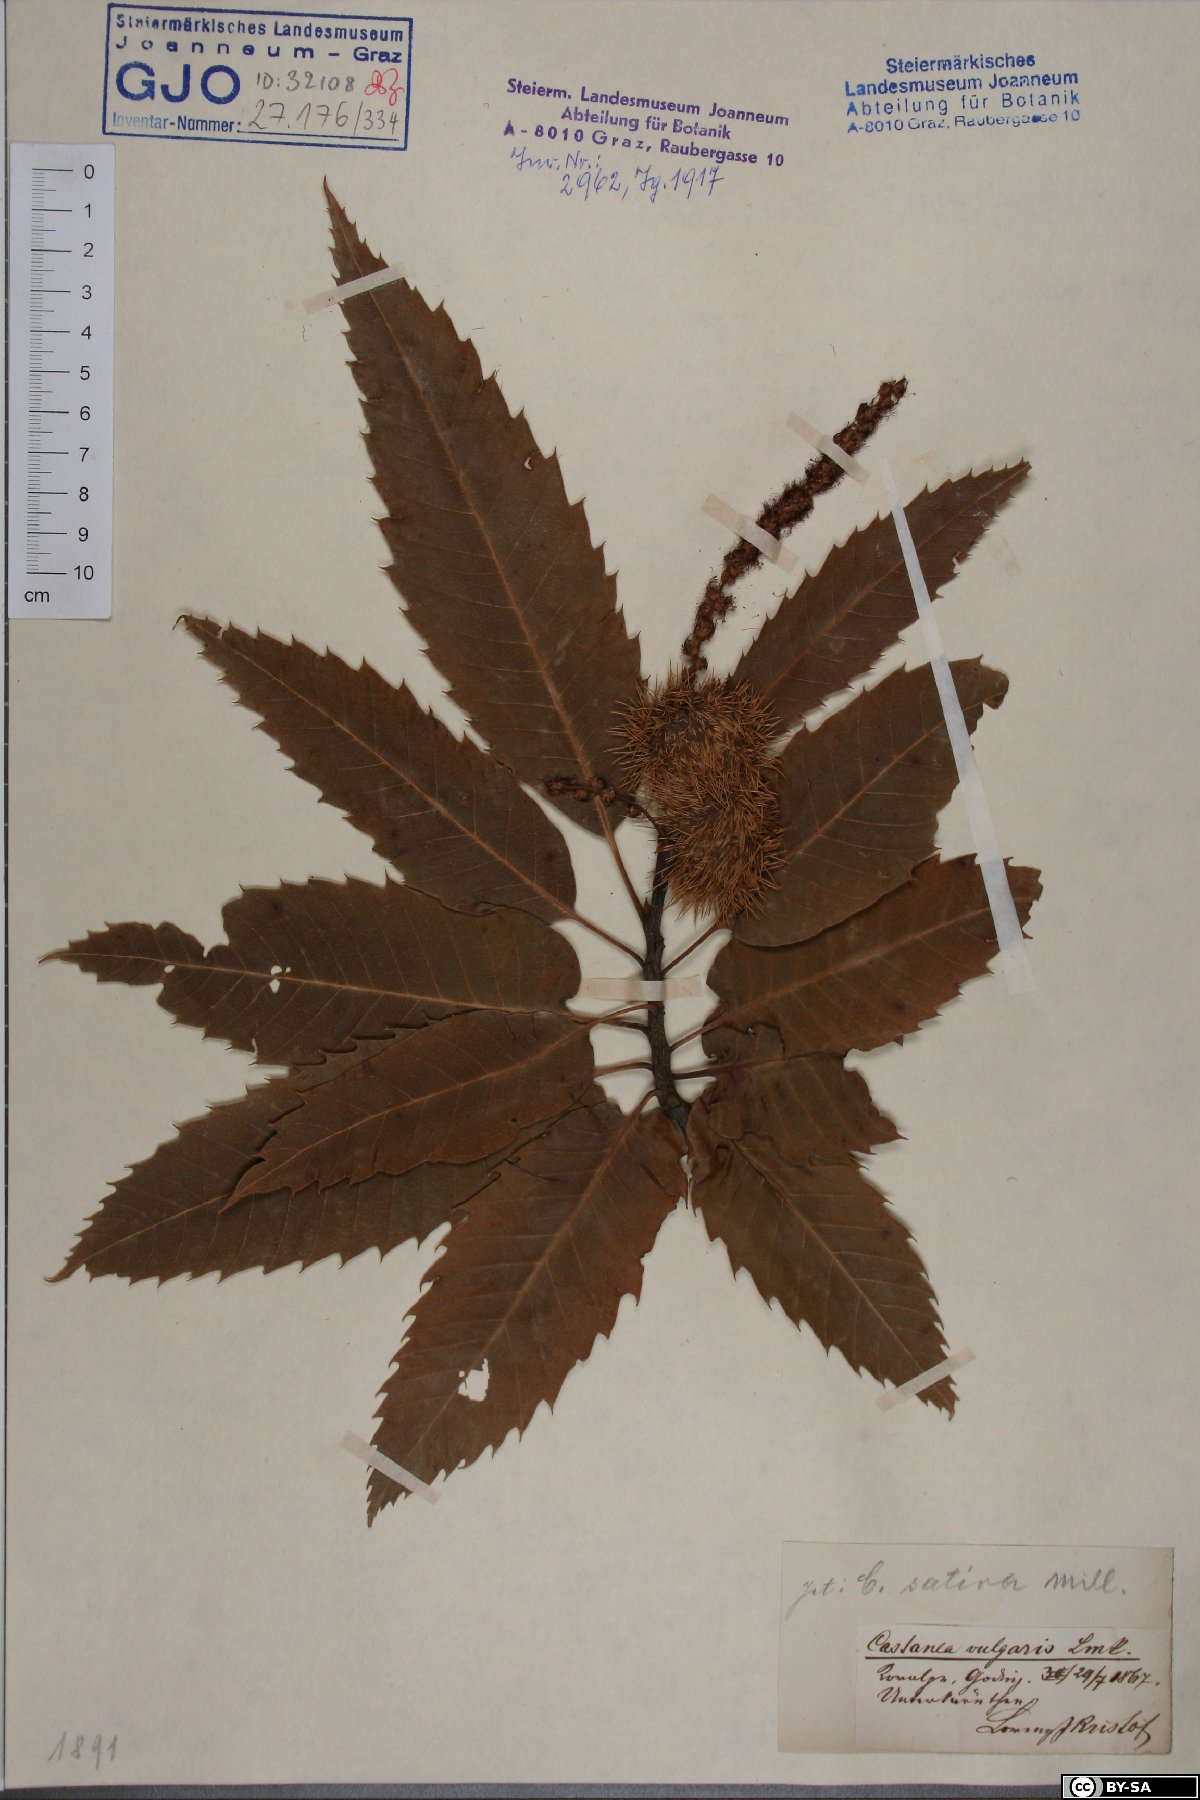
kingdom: Plantae
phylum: Tracheophyta
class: Magnoliopsida
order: Fagales
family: Fagaceae
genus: Castanea
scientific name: Castanea sativa
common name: Sweet chestnut
